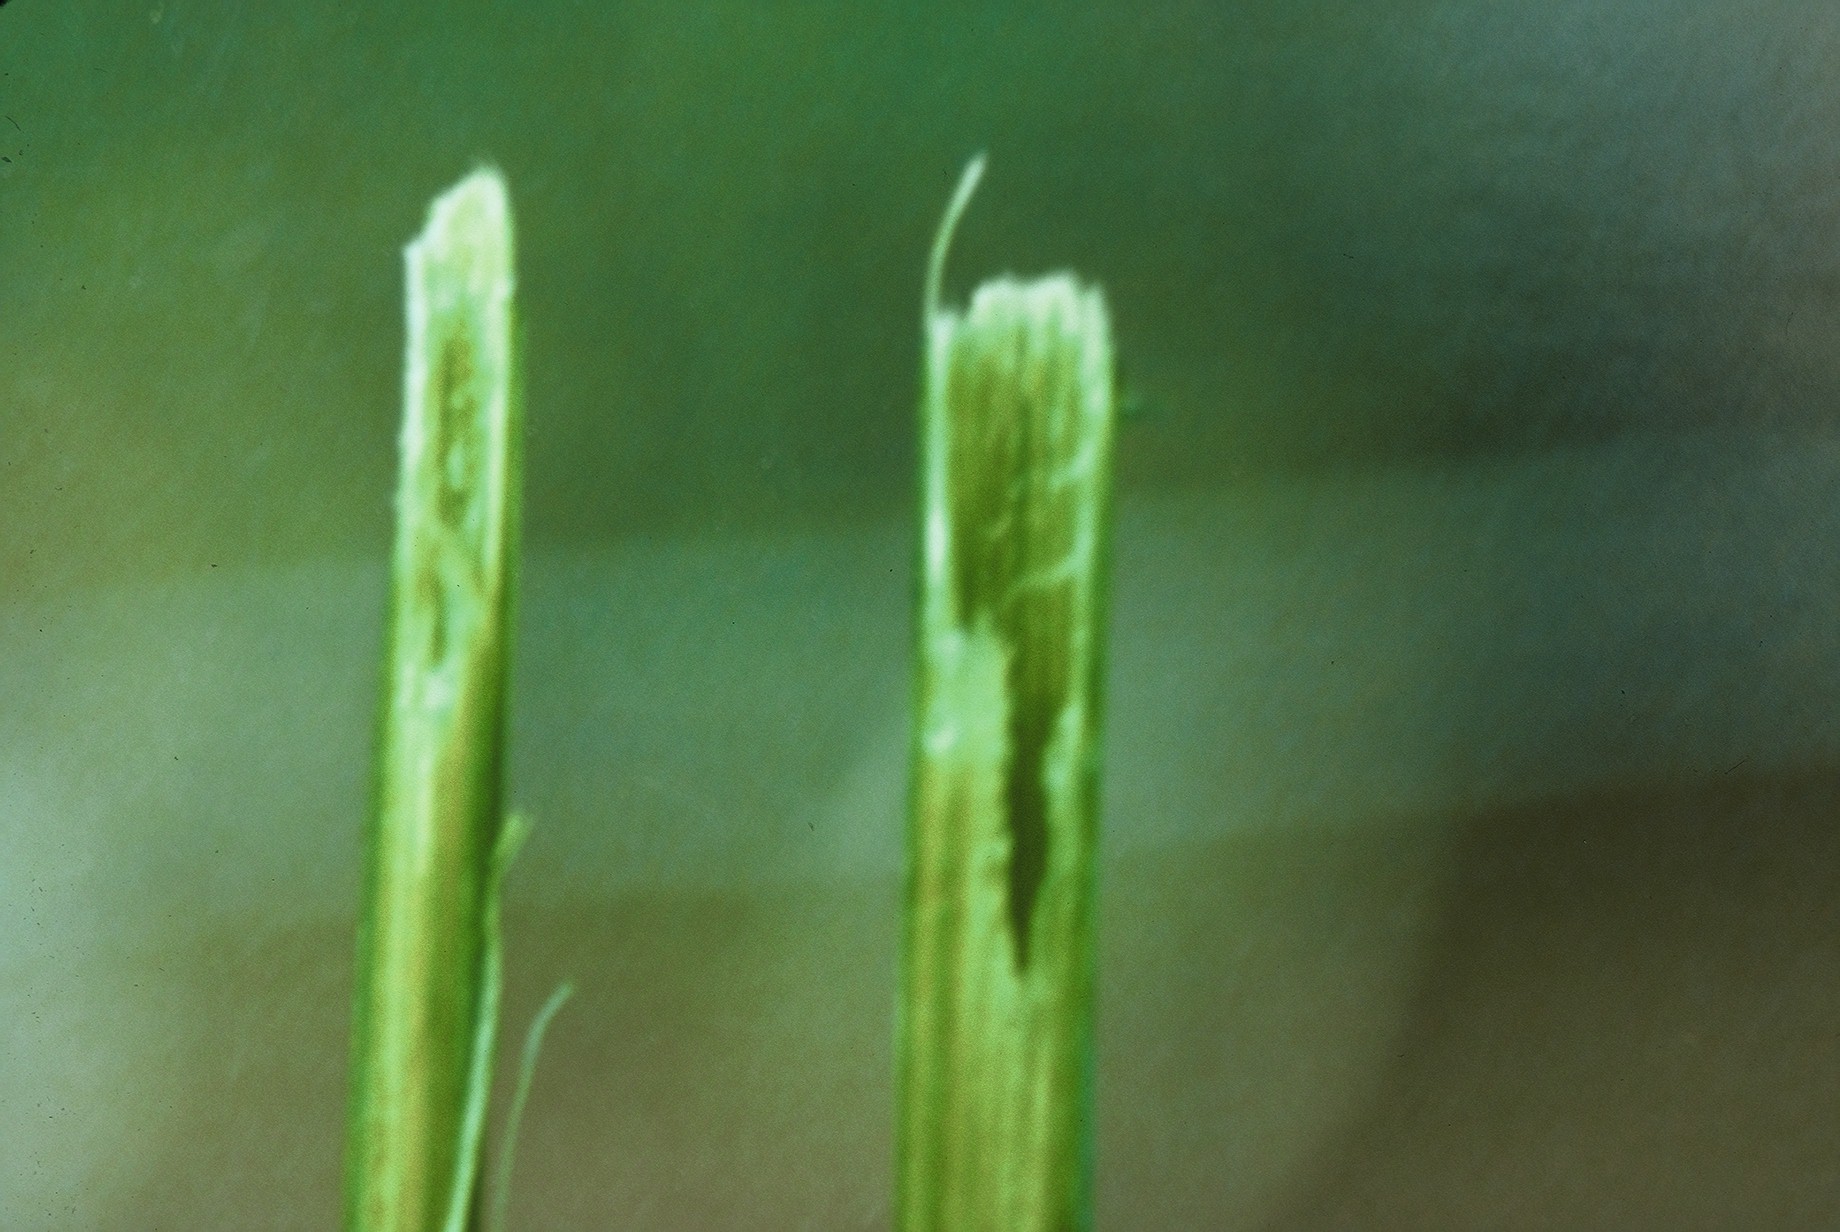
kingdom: Plantae
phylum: Tracheophyta
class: Magnoliopsida
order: Fabales
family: Fabaceae
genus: Lathyrus
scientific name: Lathyrus oleraceus
